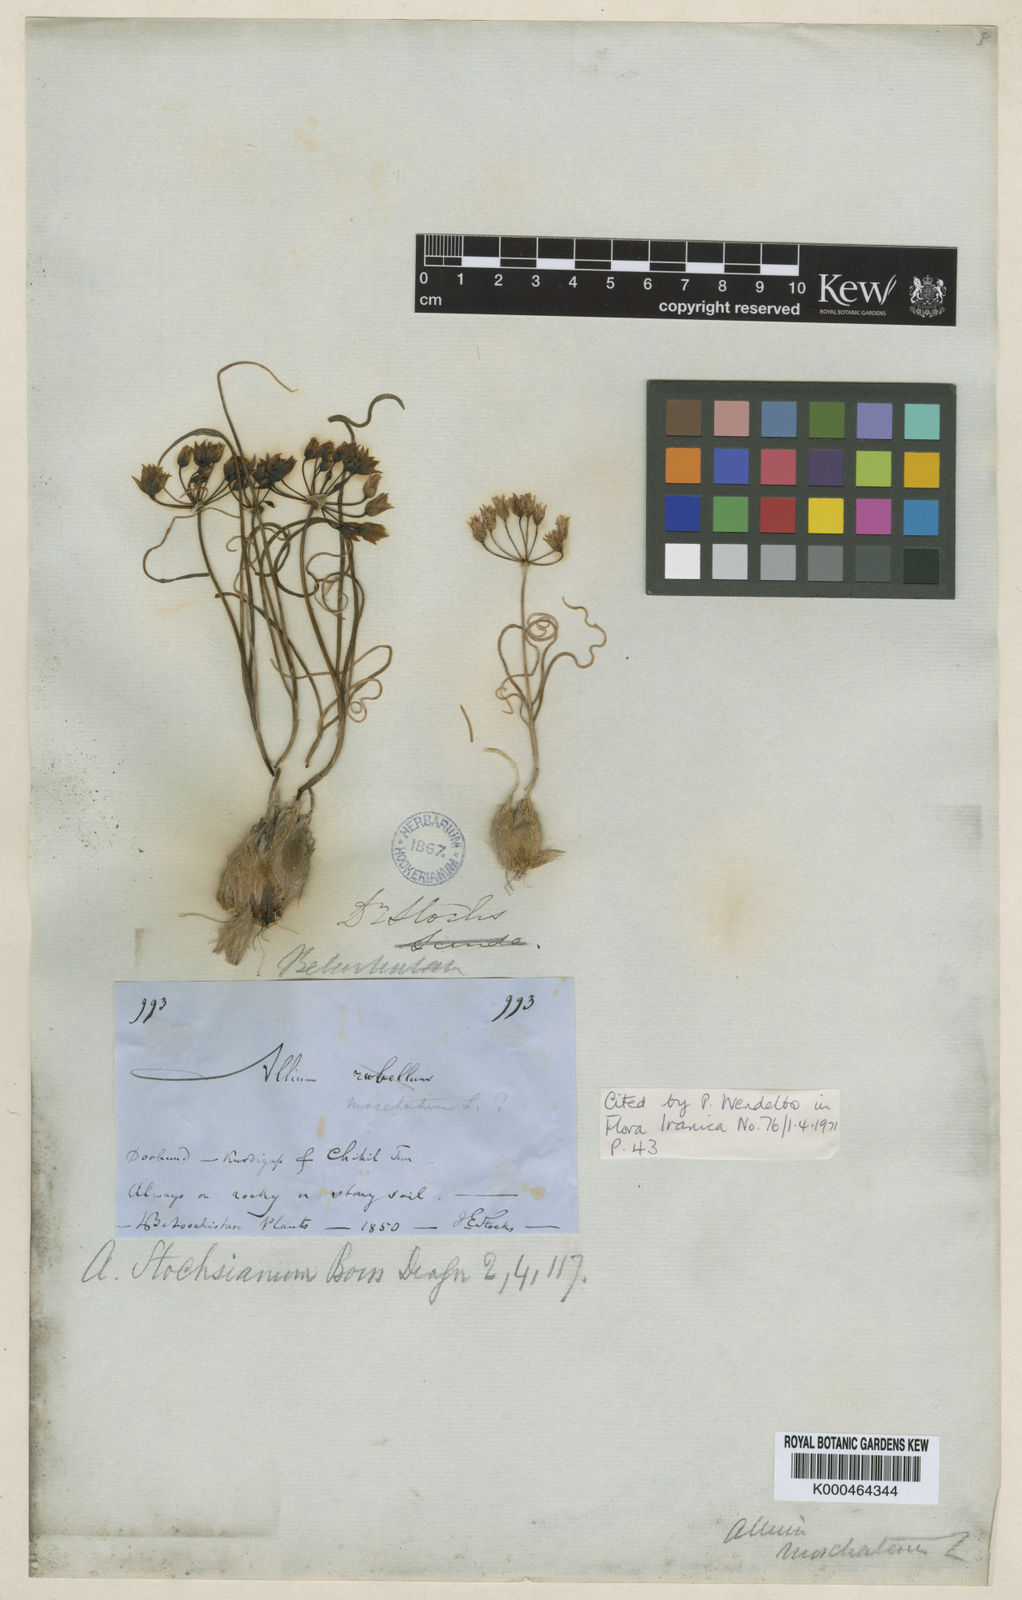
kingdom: Plantae
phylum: Tracheophyta
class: Liliopsida
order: Asparagales
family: Amaryllidaceae
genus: Allium
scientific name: Allium stocksianum
